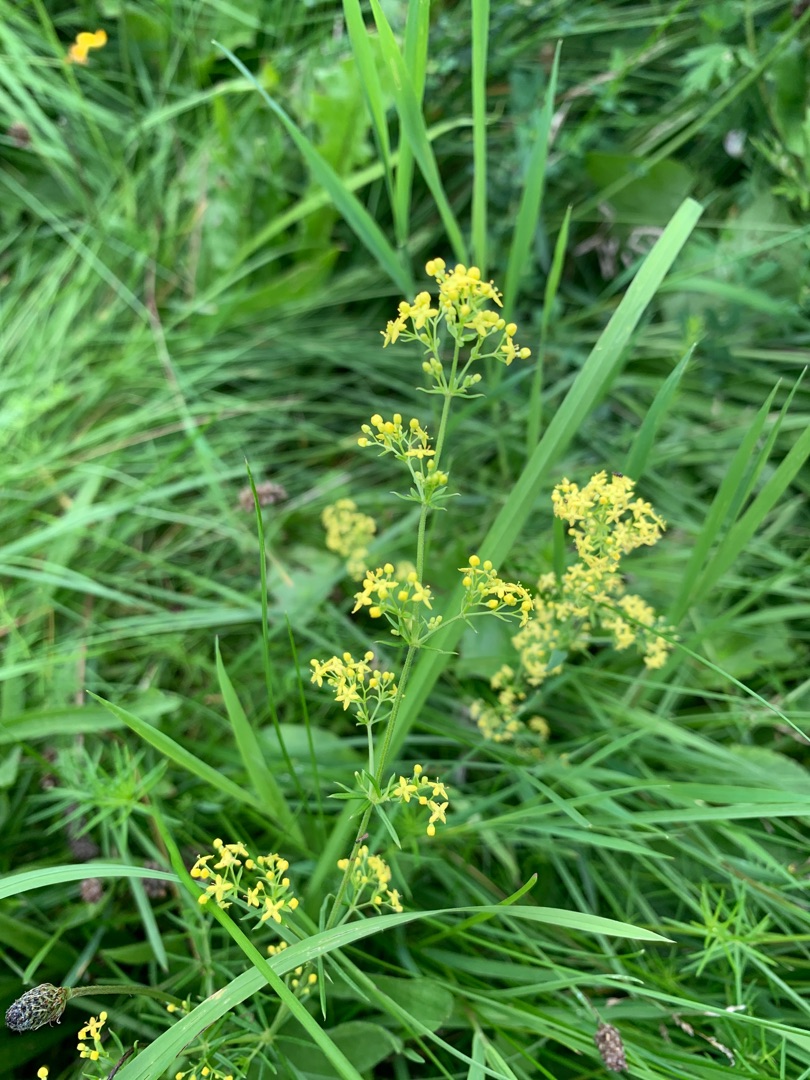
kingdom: Plantae
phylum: Tracheophyta
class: Magnoliopsida
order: Gentianales
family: Rubiaceae
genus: Galium
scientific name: Galium verum
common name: Gul snerre
